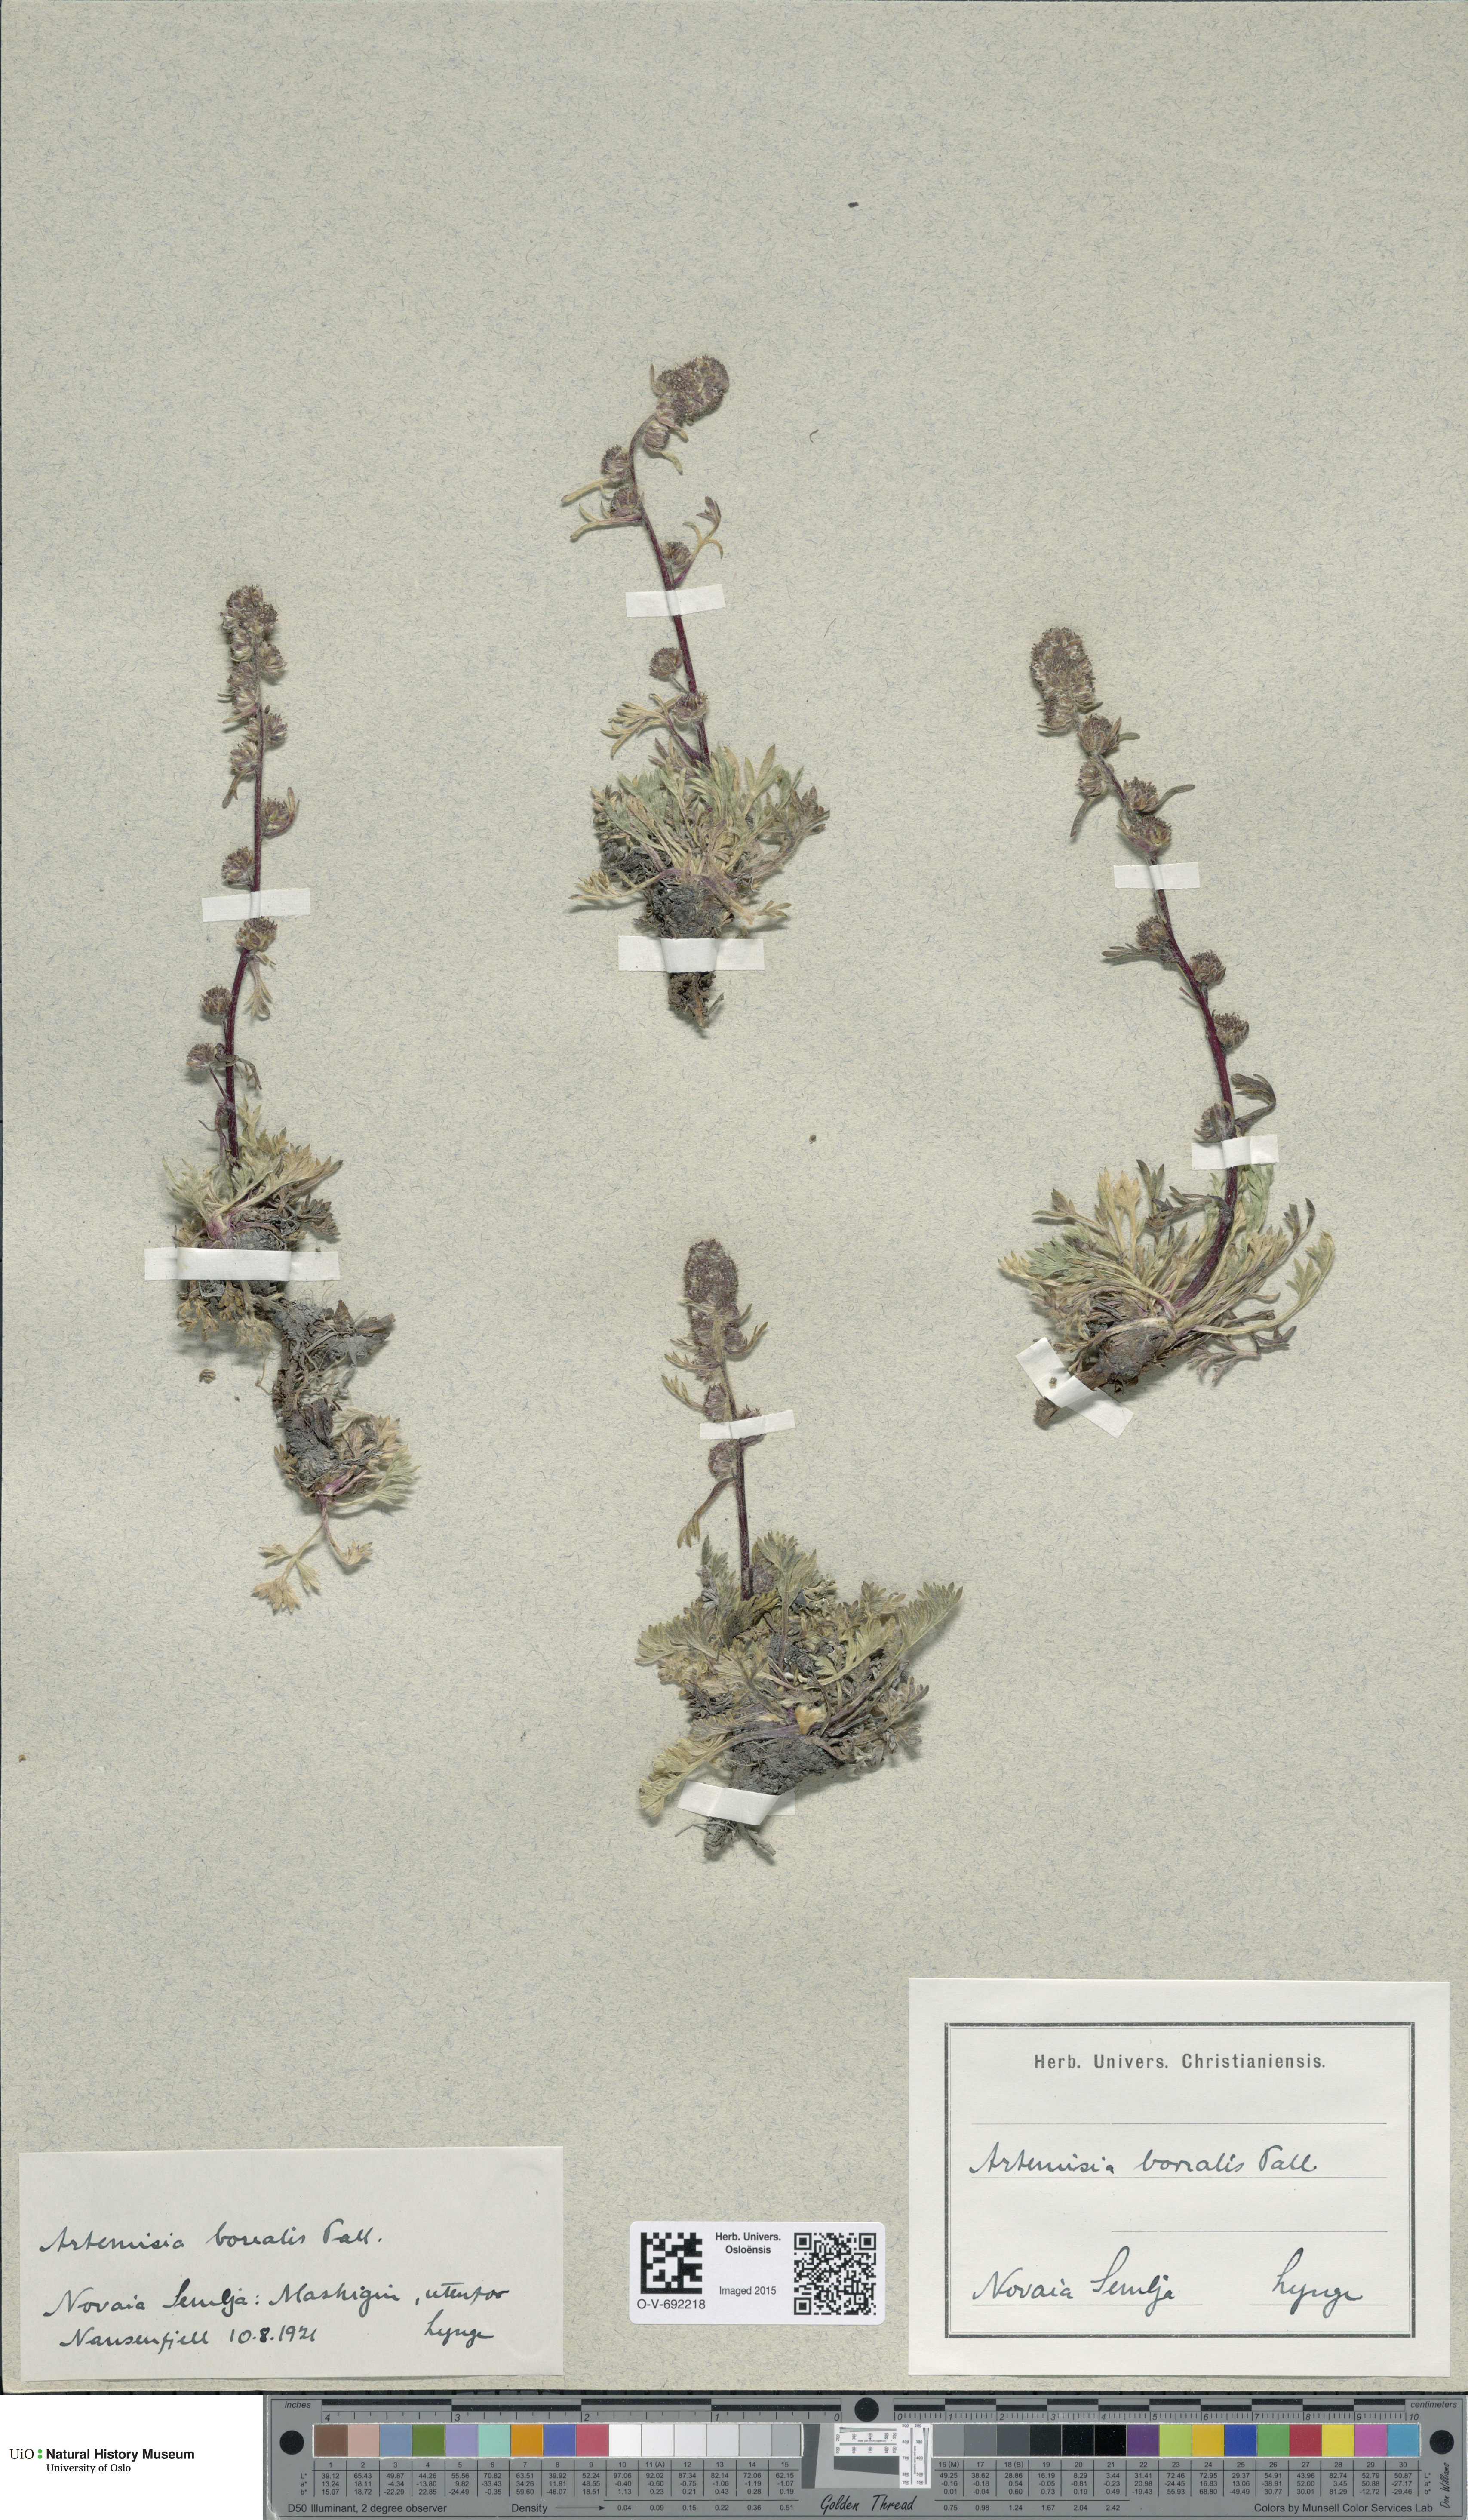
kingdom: Plantae
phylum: Tracheophyta
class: Magnoliopsida
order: Asterales
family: Asteraceae
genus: Artemisia
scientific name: Artemisia borealis
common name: Boreal sage
